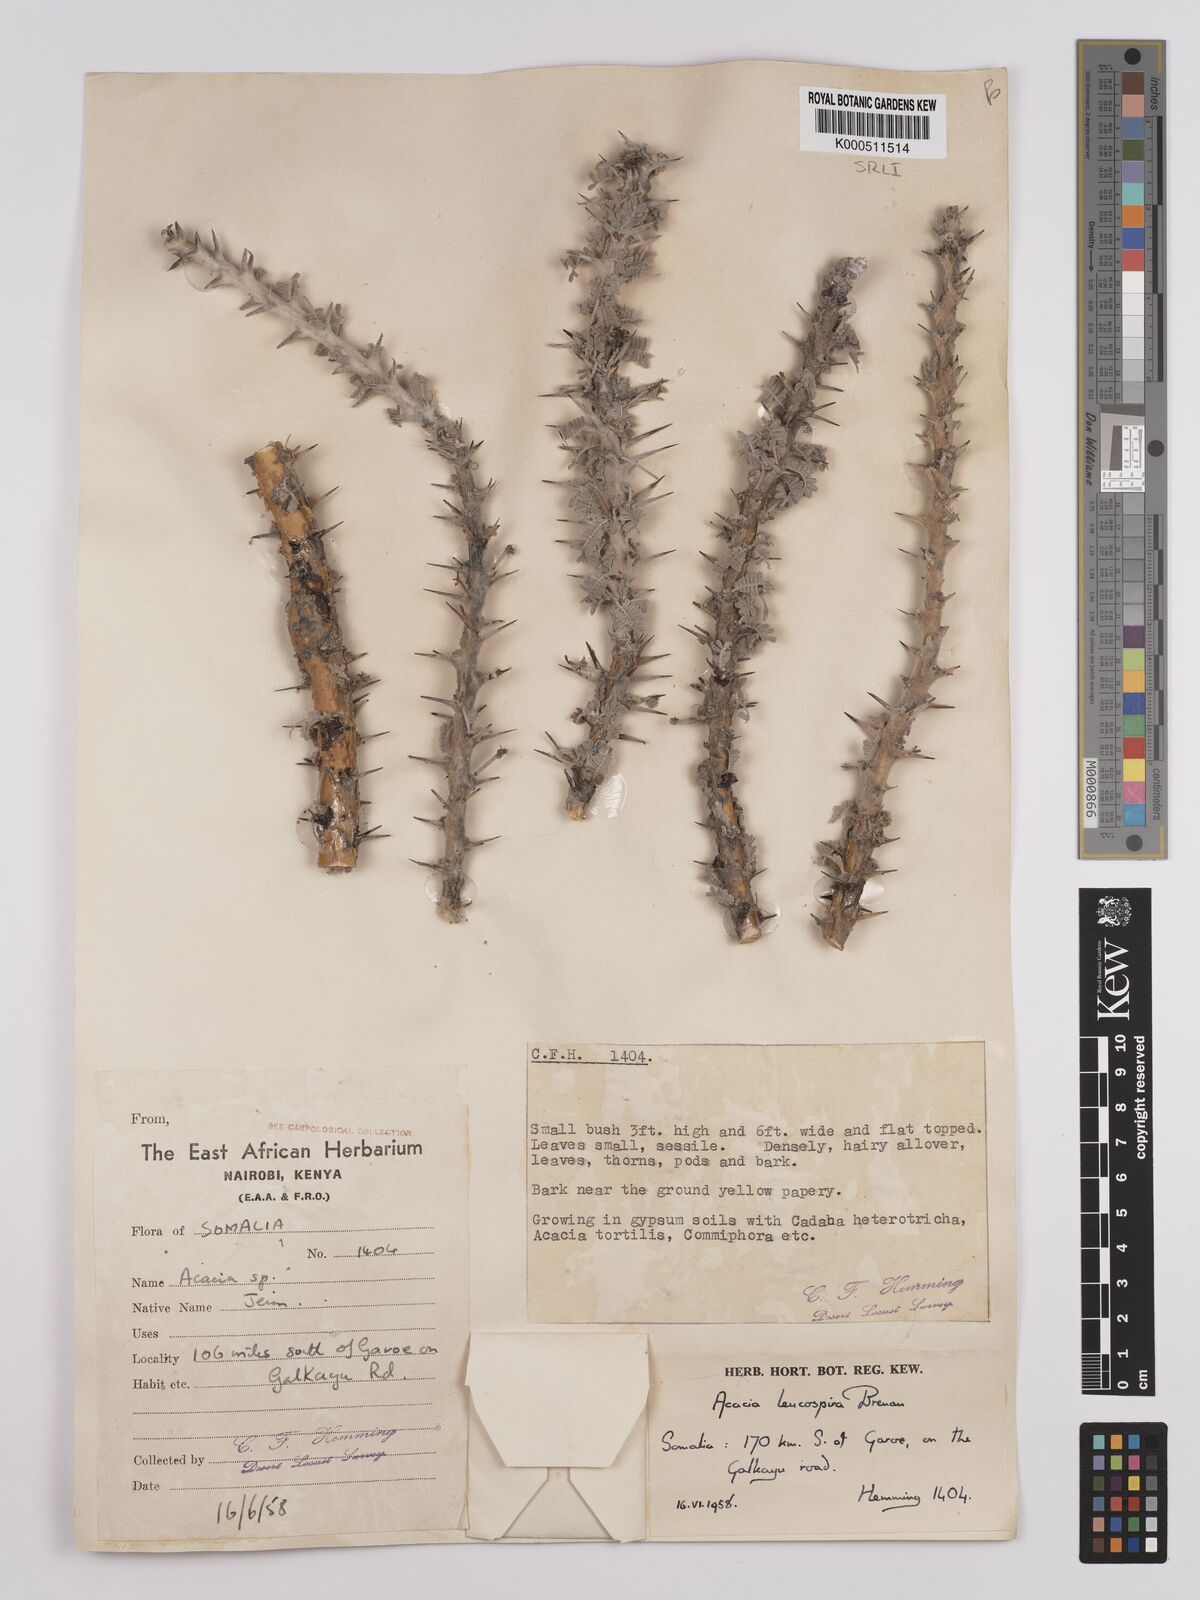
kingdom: Plantae
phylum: Tracheophyta
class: Magnoliopsida
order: Fabales
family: Fabaceae
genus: Vachellia
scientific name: Vachellia leucospira
